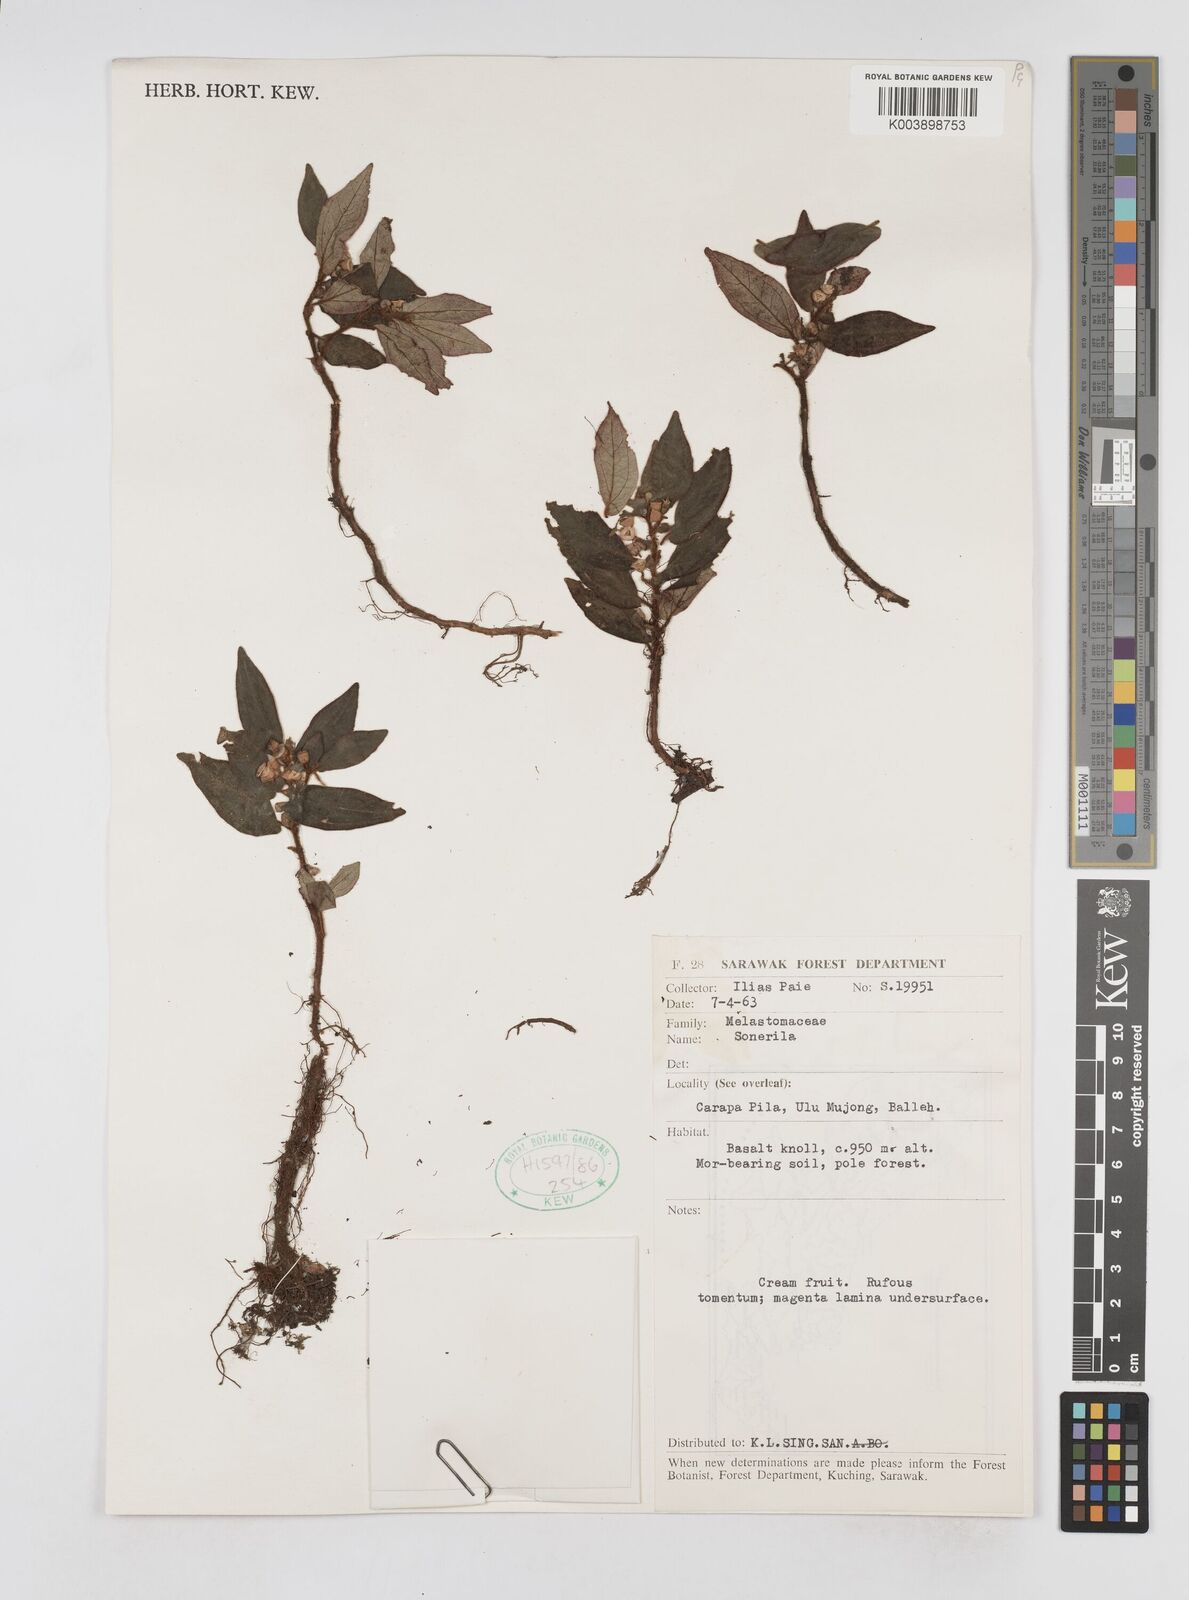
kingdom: Plantae
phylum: Tracheophyta
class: Magnoliopsida
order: Myrtales
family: Melastomataceae
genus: Sonerila
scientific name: Sonerila
